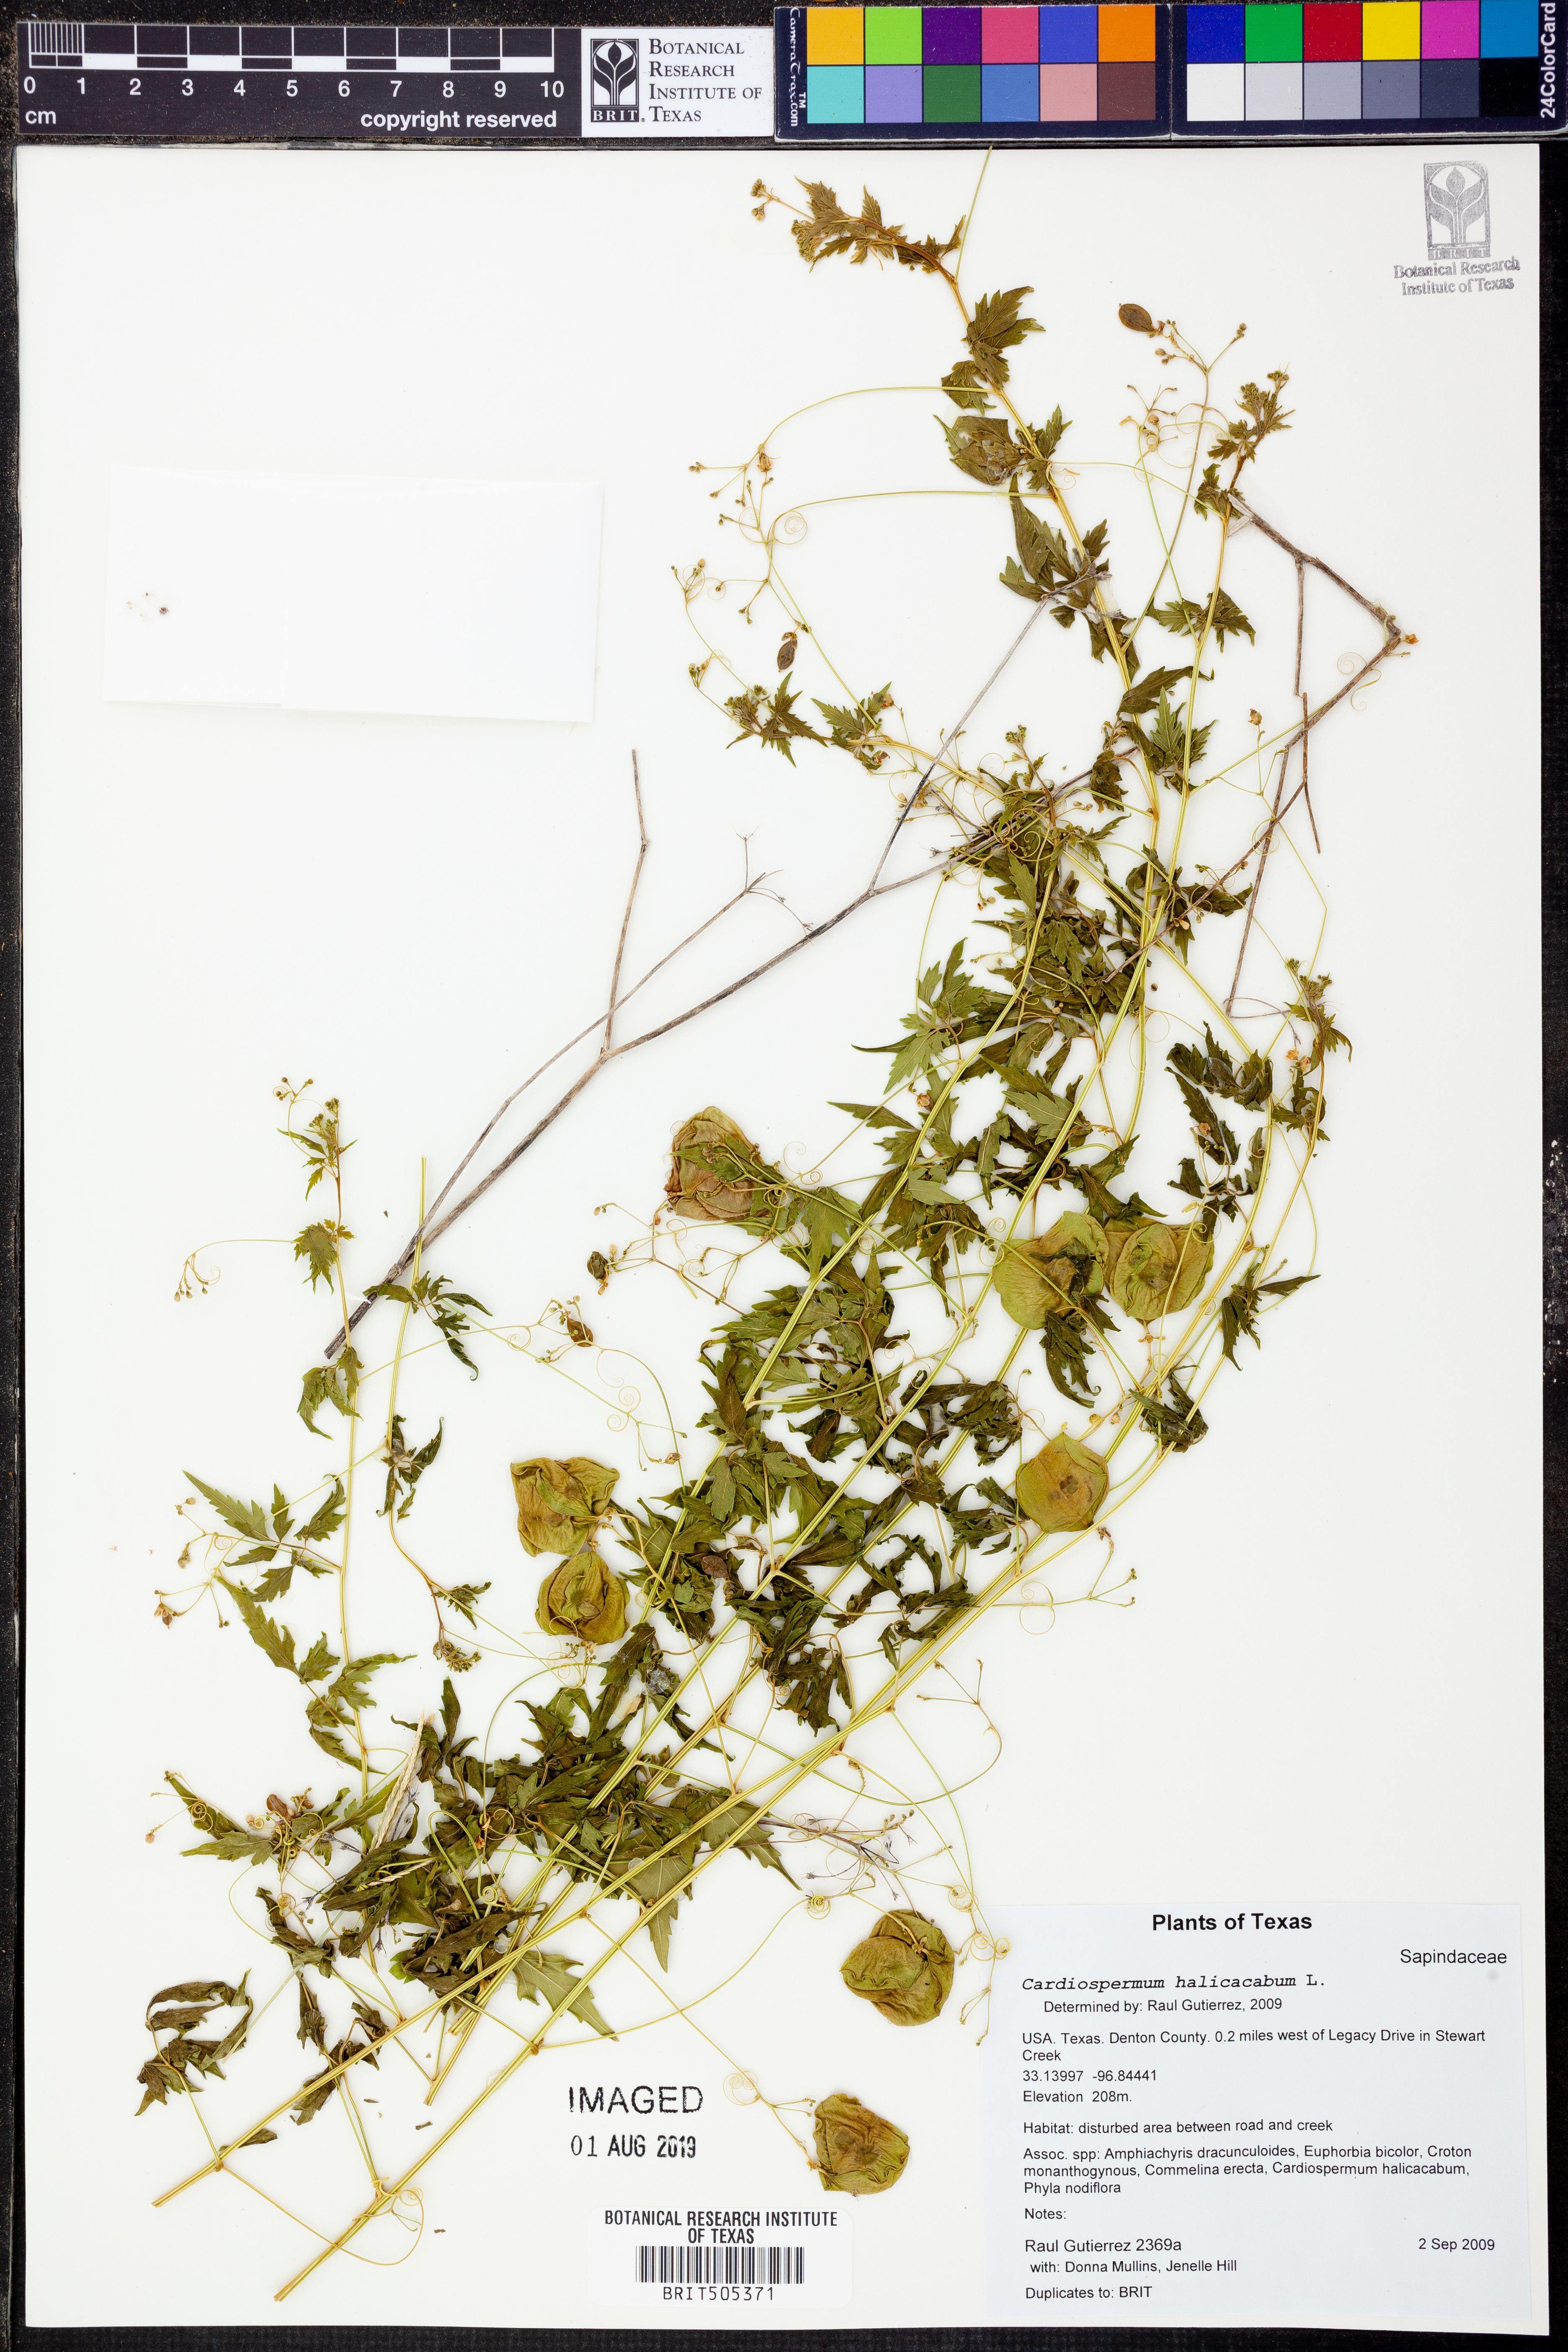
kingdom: Plantae
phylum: Tracheophyta
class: Magnoliopsida
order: Sapindales
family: Sapindaceae
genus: Cardiospermum
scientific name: Cardiospermum halicacabum
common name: Balloon vine
